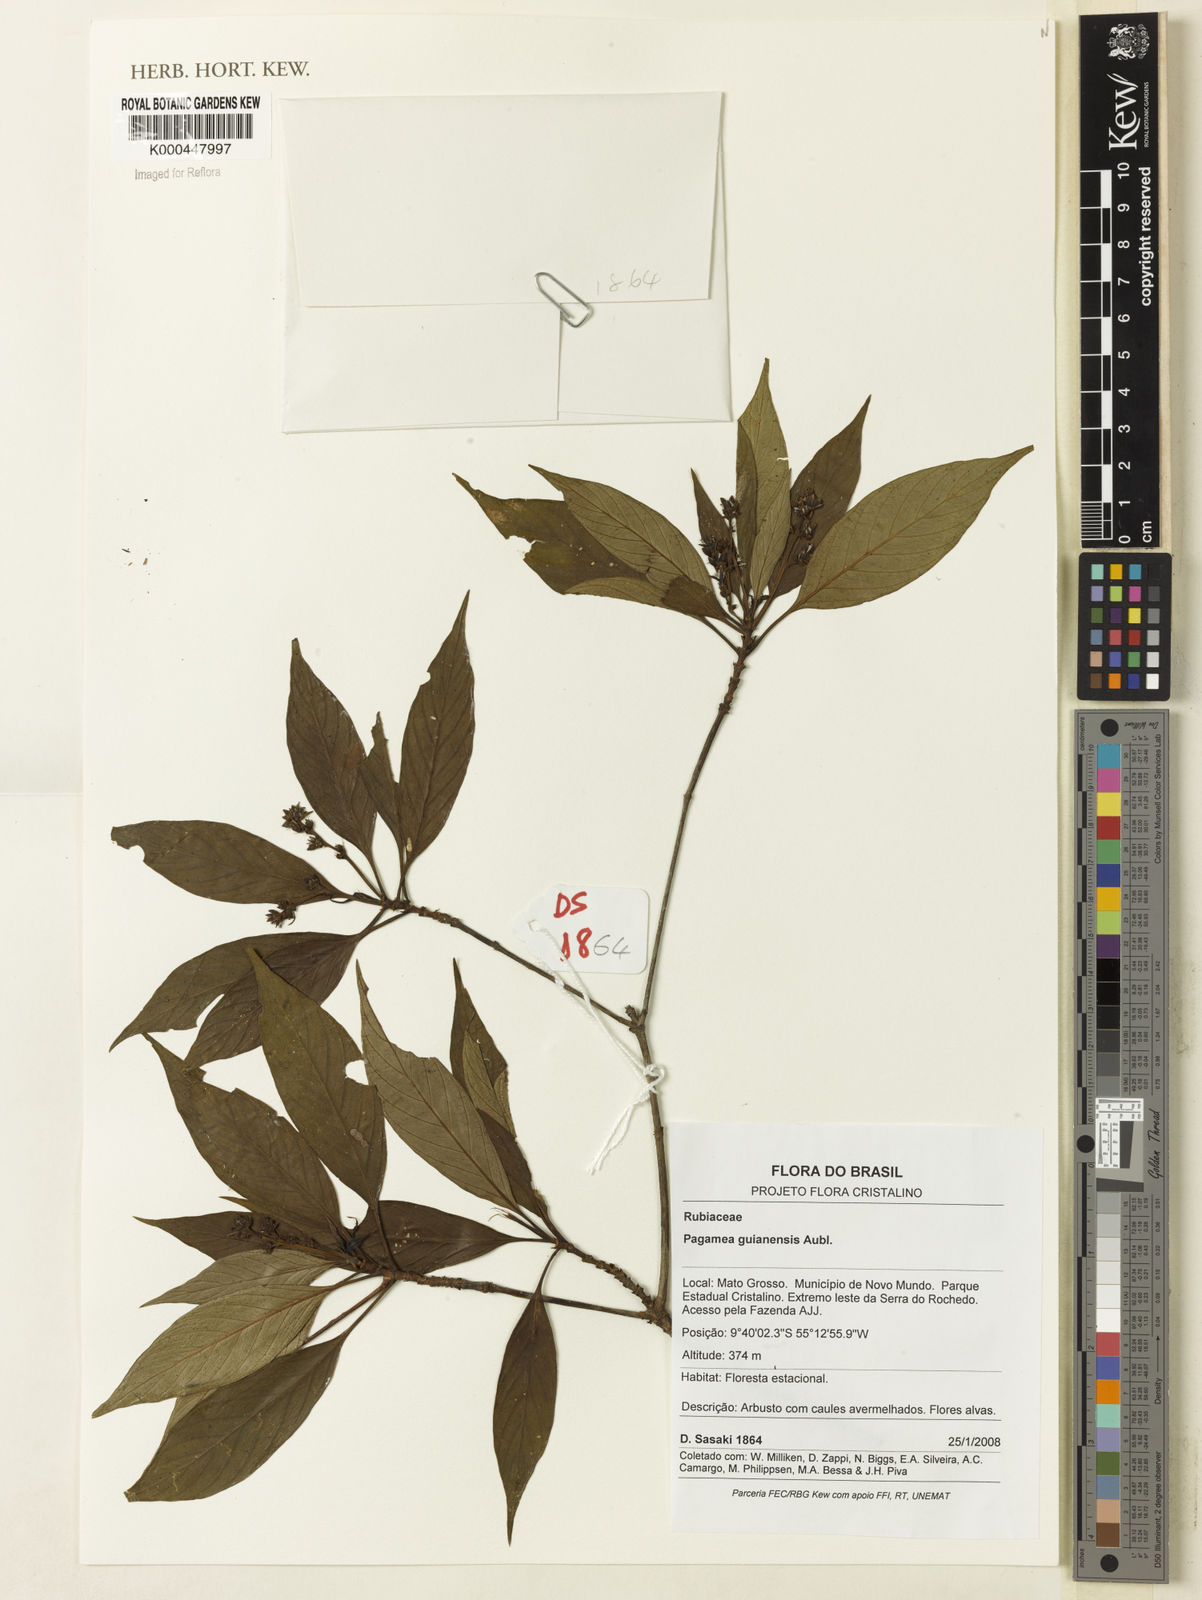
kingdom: Plantae
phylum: Tracheophyta
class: Magnoliopsida
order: Gentianales
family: Rubiaceae
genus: Pagamea
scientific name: Pagamea guianensis
